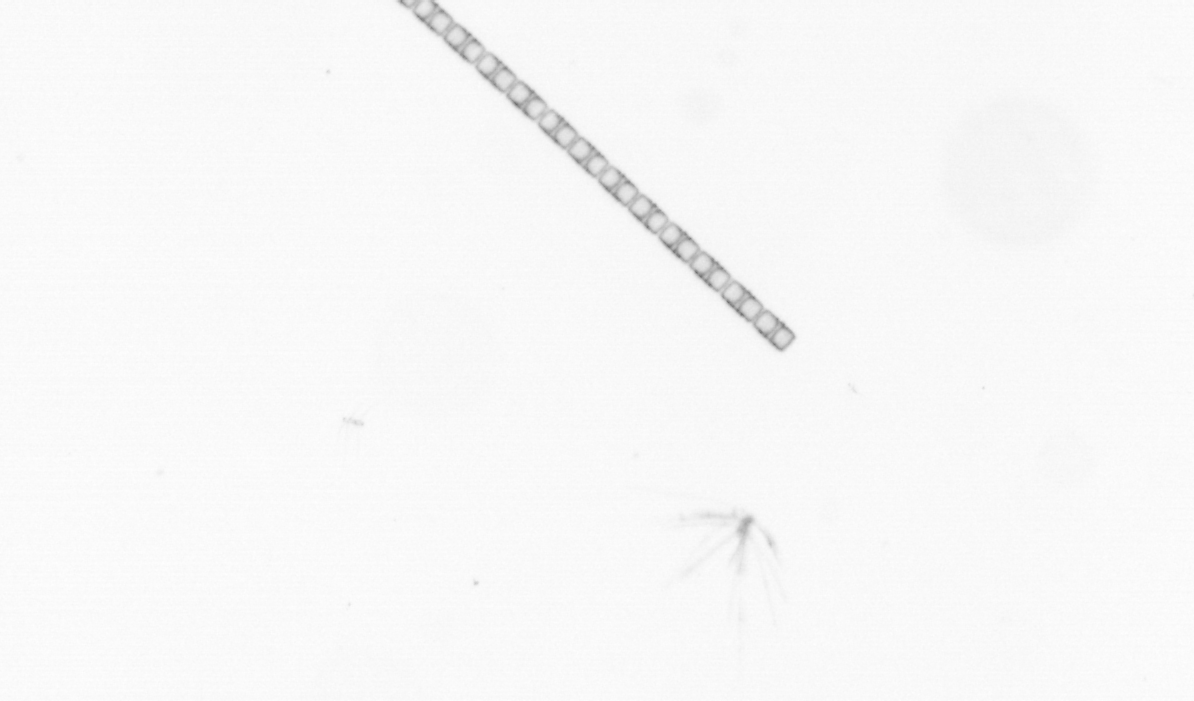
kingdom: Chromista
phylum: Ochrophyta
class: Bacillariophyceae
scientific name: Bacillariophyceae
